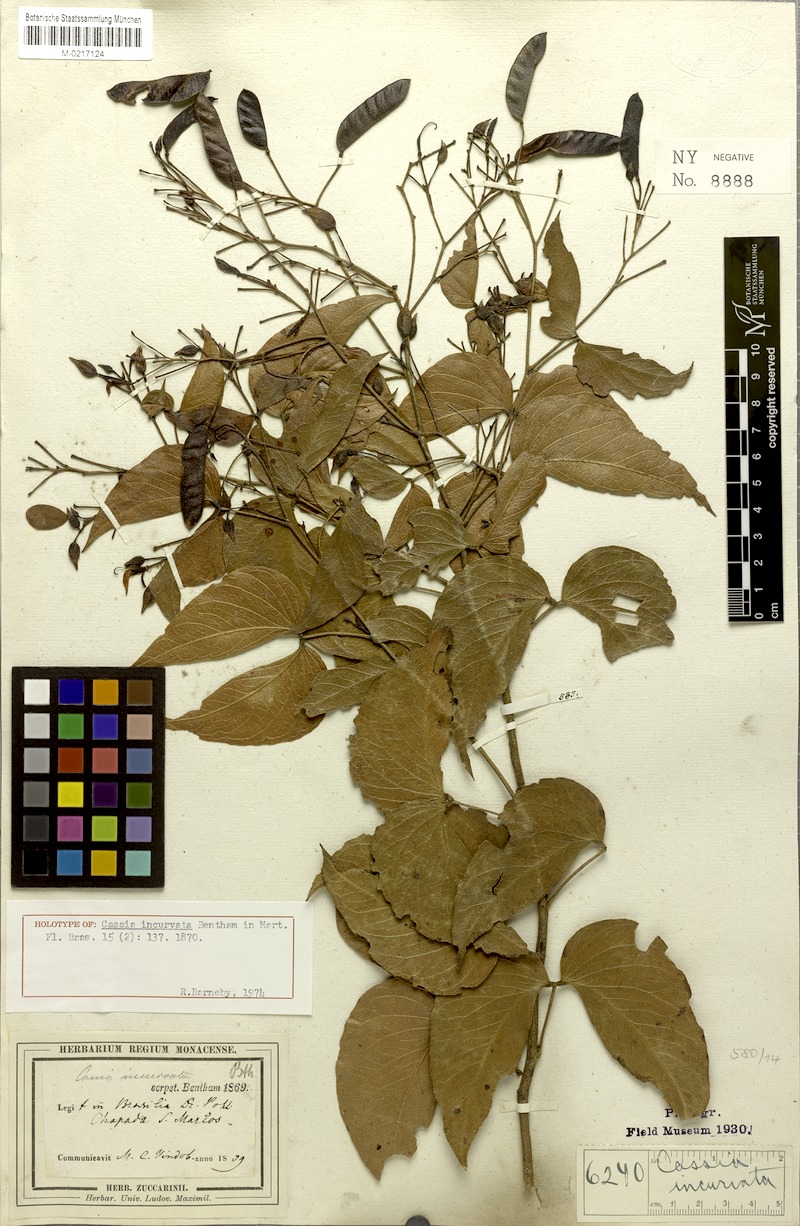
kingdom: Plantae
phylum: Tracheophyta
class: Magnoliopsida
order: Fabales
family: Fabaceae
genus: Chamaecrista
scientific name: Chamaecrista incurvata
